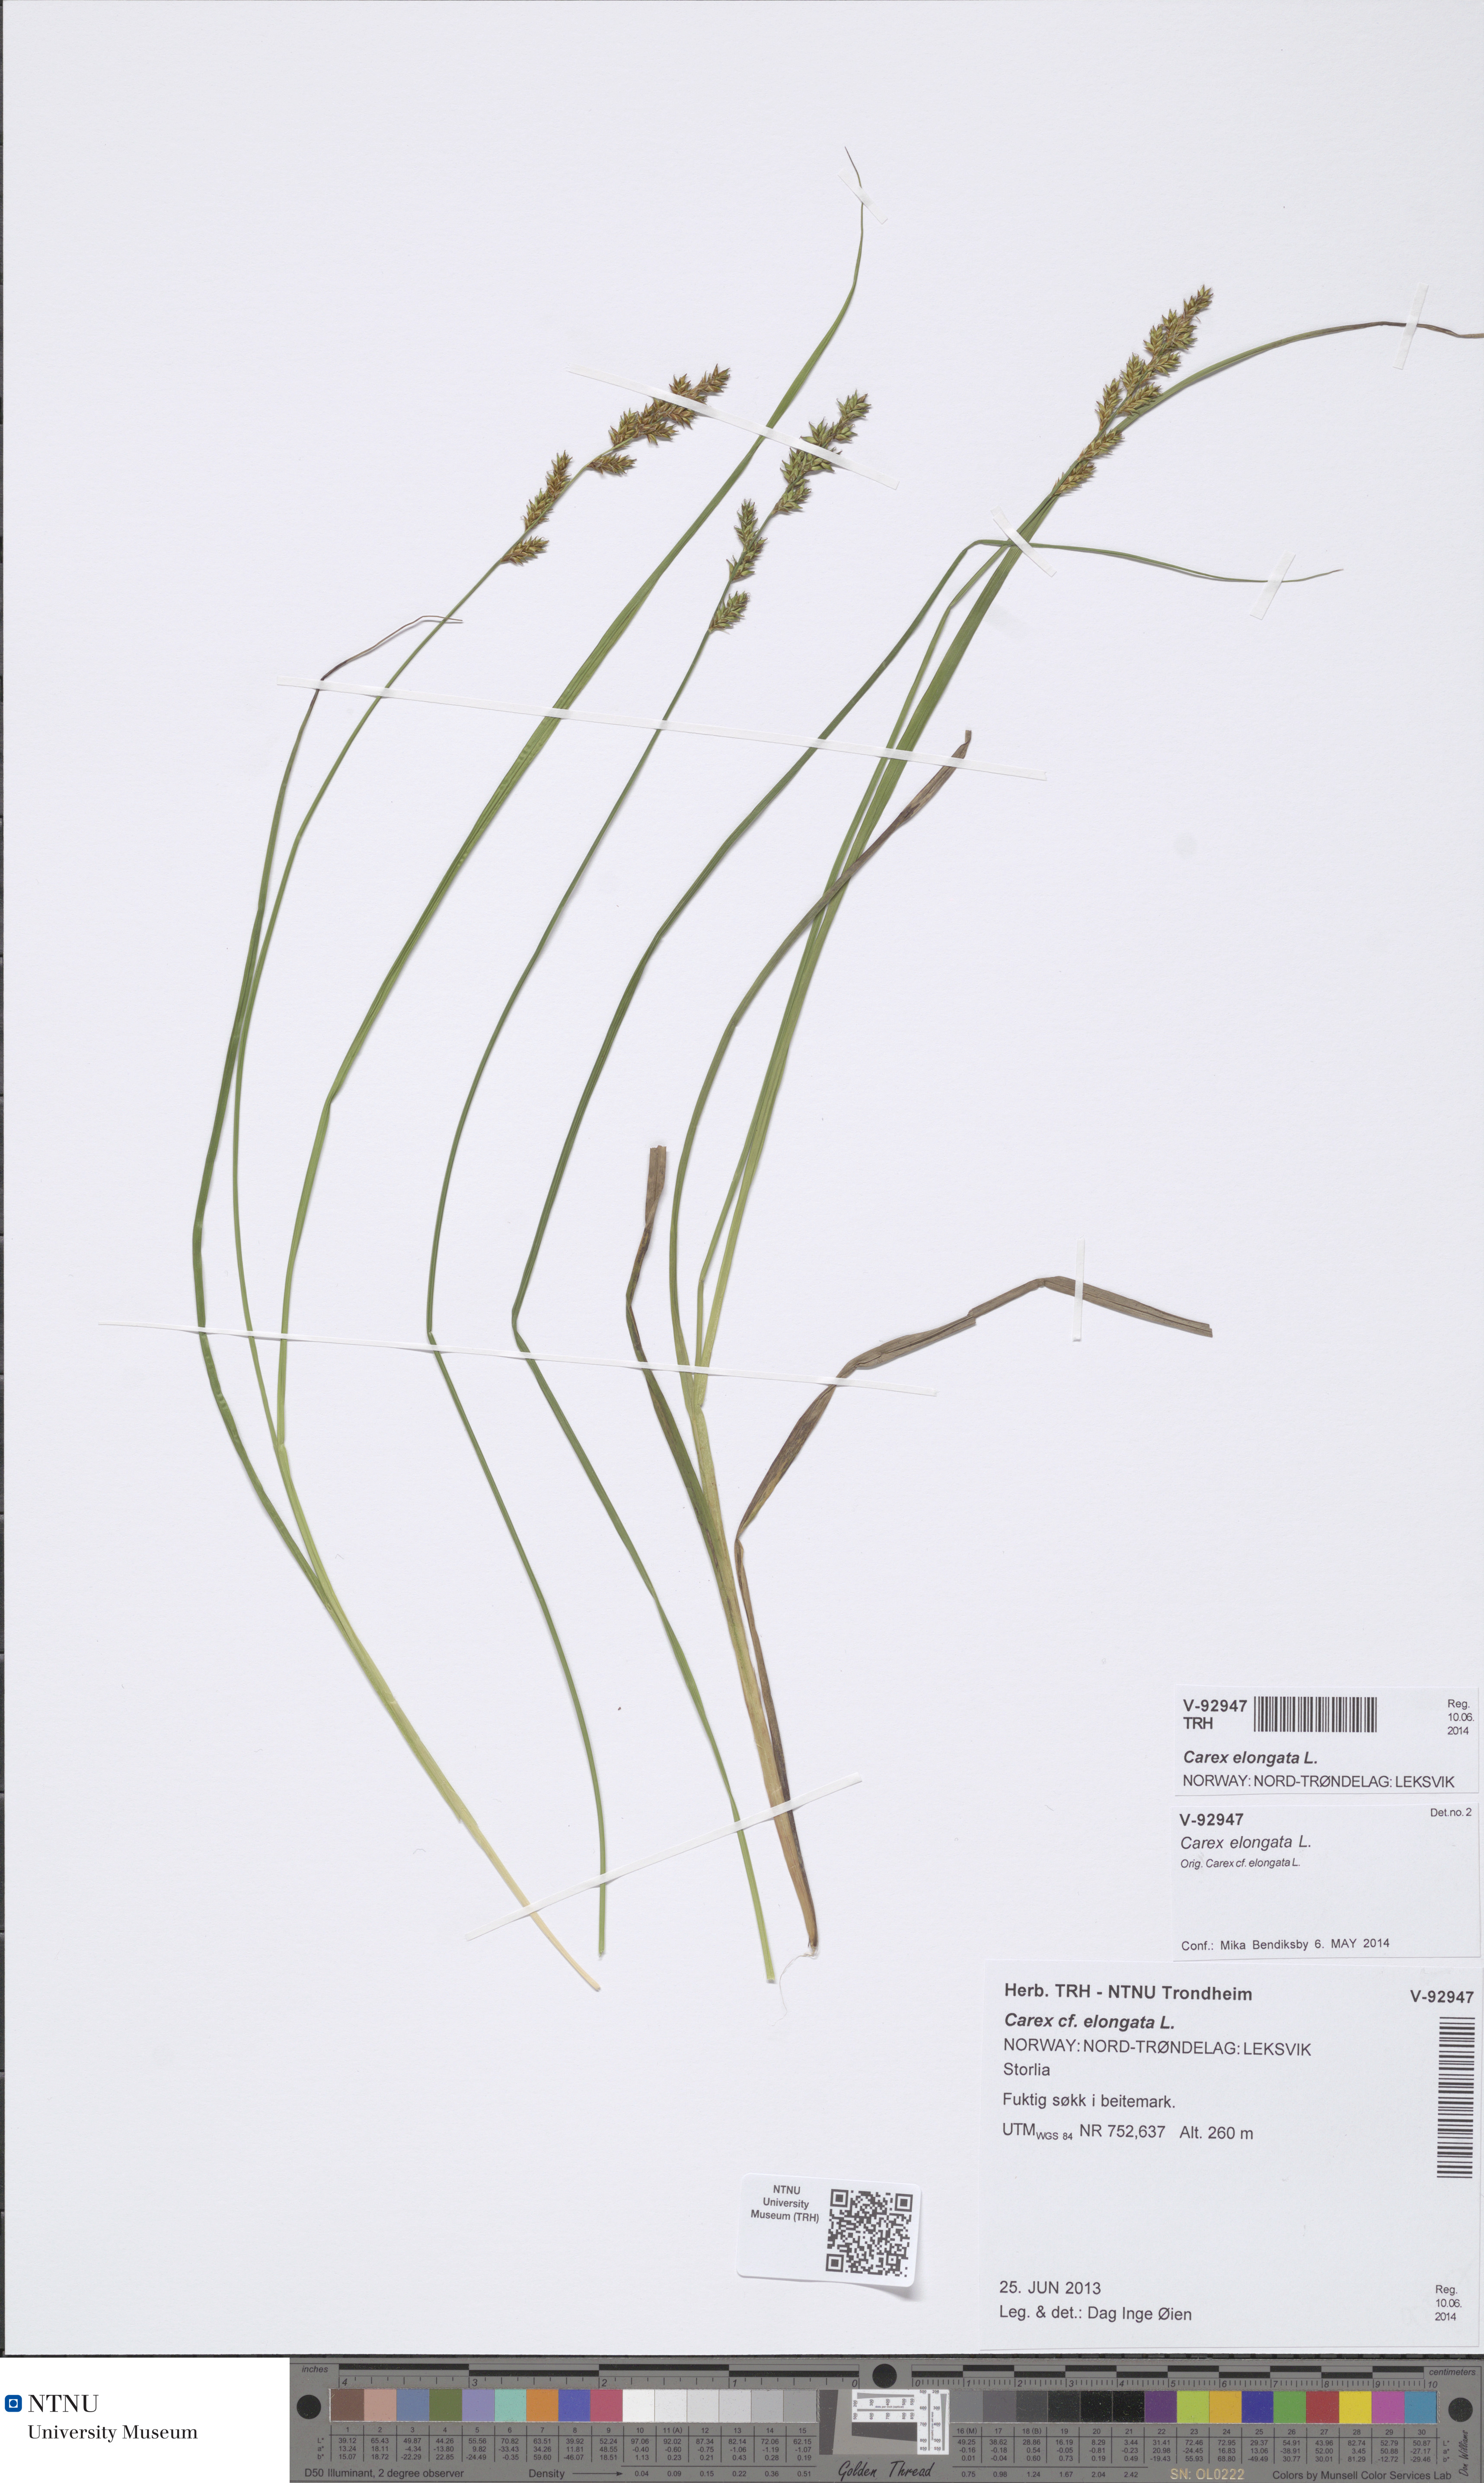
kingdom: Plantae
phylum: Tracheophyta
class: Liliopsida
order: Poales
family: Cyperaceae
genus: Carex
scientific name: Carex elongata
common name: Elongated sedge
